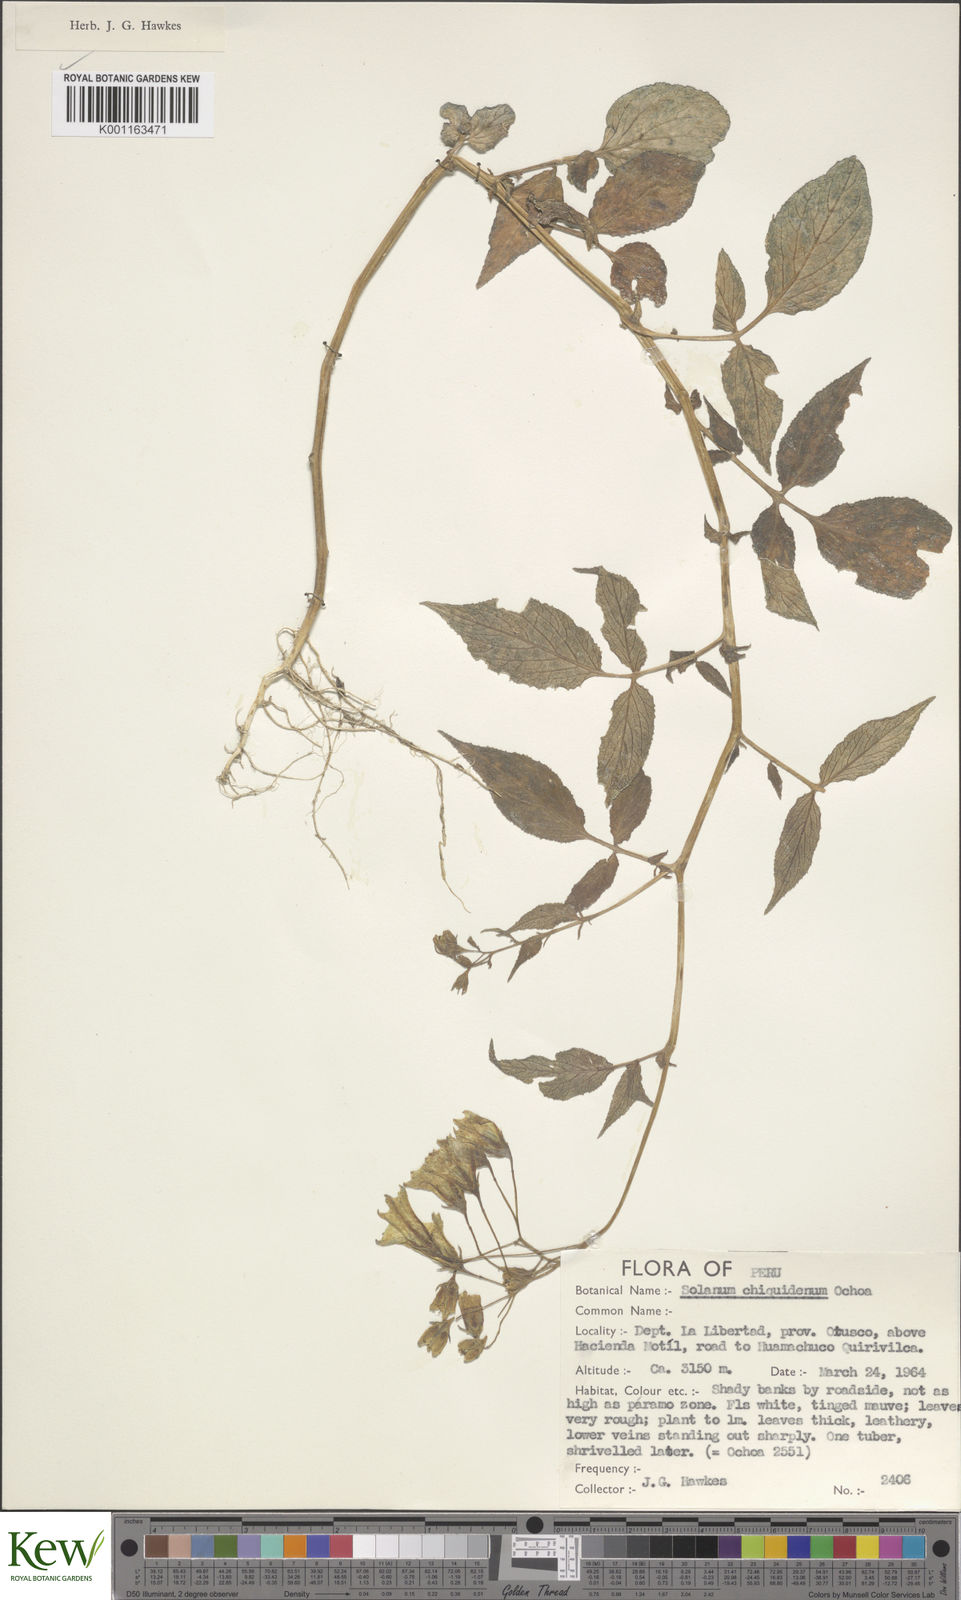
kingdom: Plantae
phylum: Tracheophyta
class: Magnoliopsida
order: Solanales
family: Solanaceae
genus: Solanum
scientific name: Solanum chiquidenum
